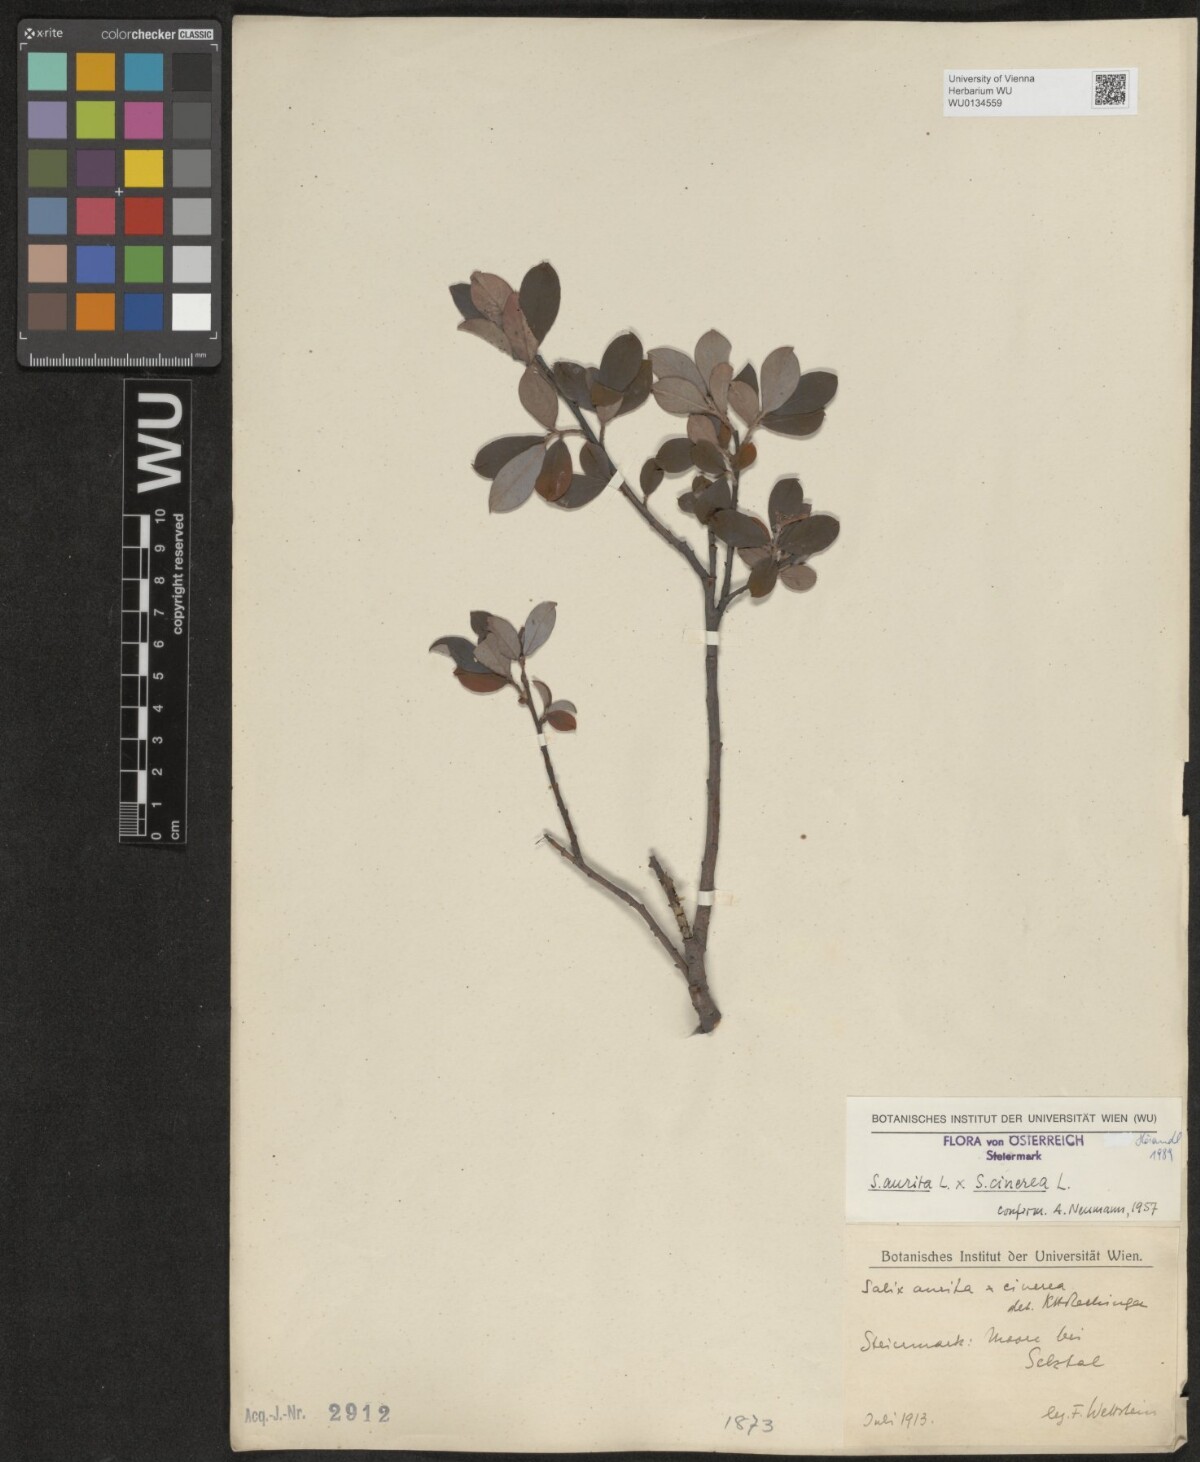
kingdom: Plantae
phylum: Tracheophyta
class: Magnoliopsida
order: Malpighiales
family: Salicaceae
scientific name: Salicaceae
